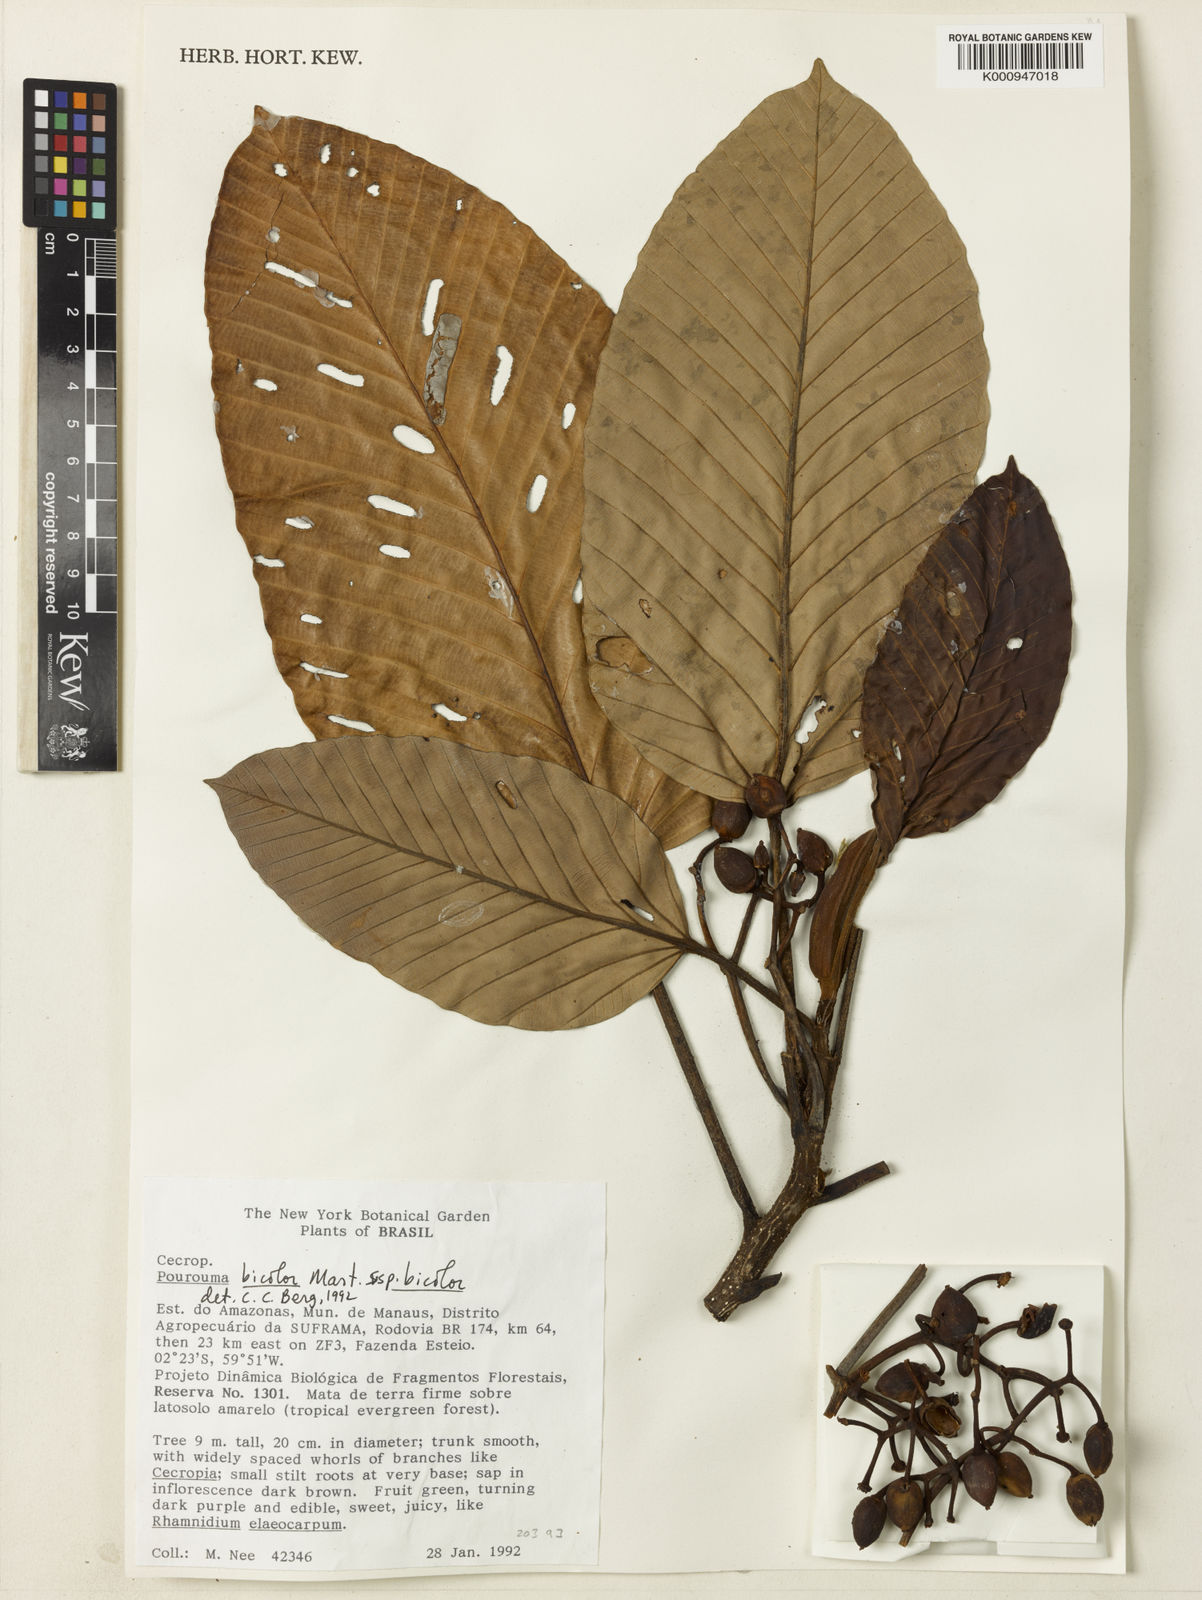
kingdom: Plantae
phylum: Tracheophyta
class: Magnoliopsida
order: Rosales
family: Urticaceae
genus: Pourouma
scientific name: Pourouma bicolor
